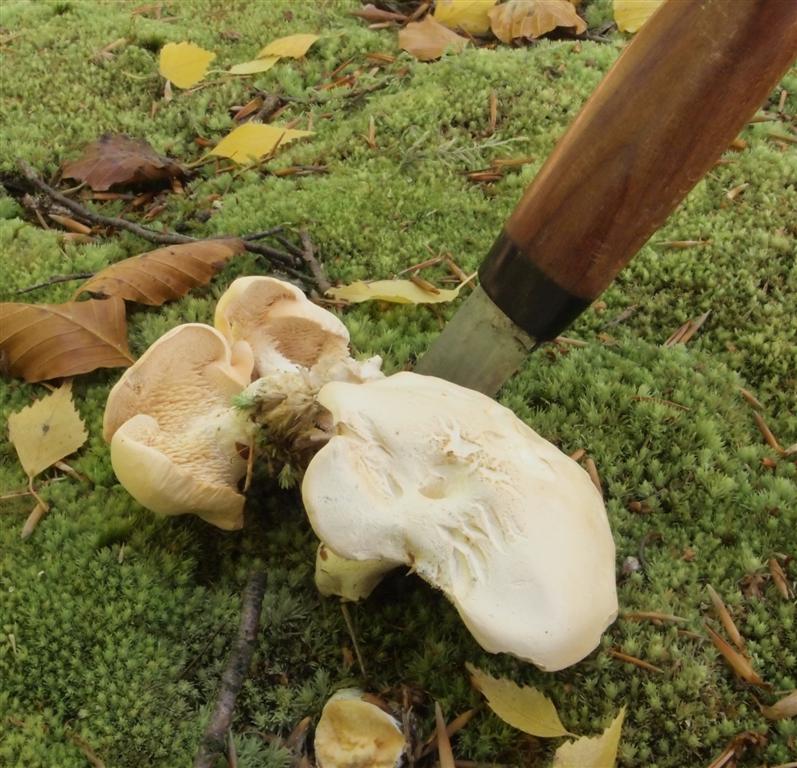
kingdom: Fungi
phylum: Basidiomycota
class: Agaricomycetes
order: Cantharellales
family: Hydnaceae
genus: Hydnum
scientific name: Hydnum repandum
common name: almindelig pigsvamp
